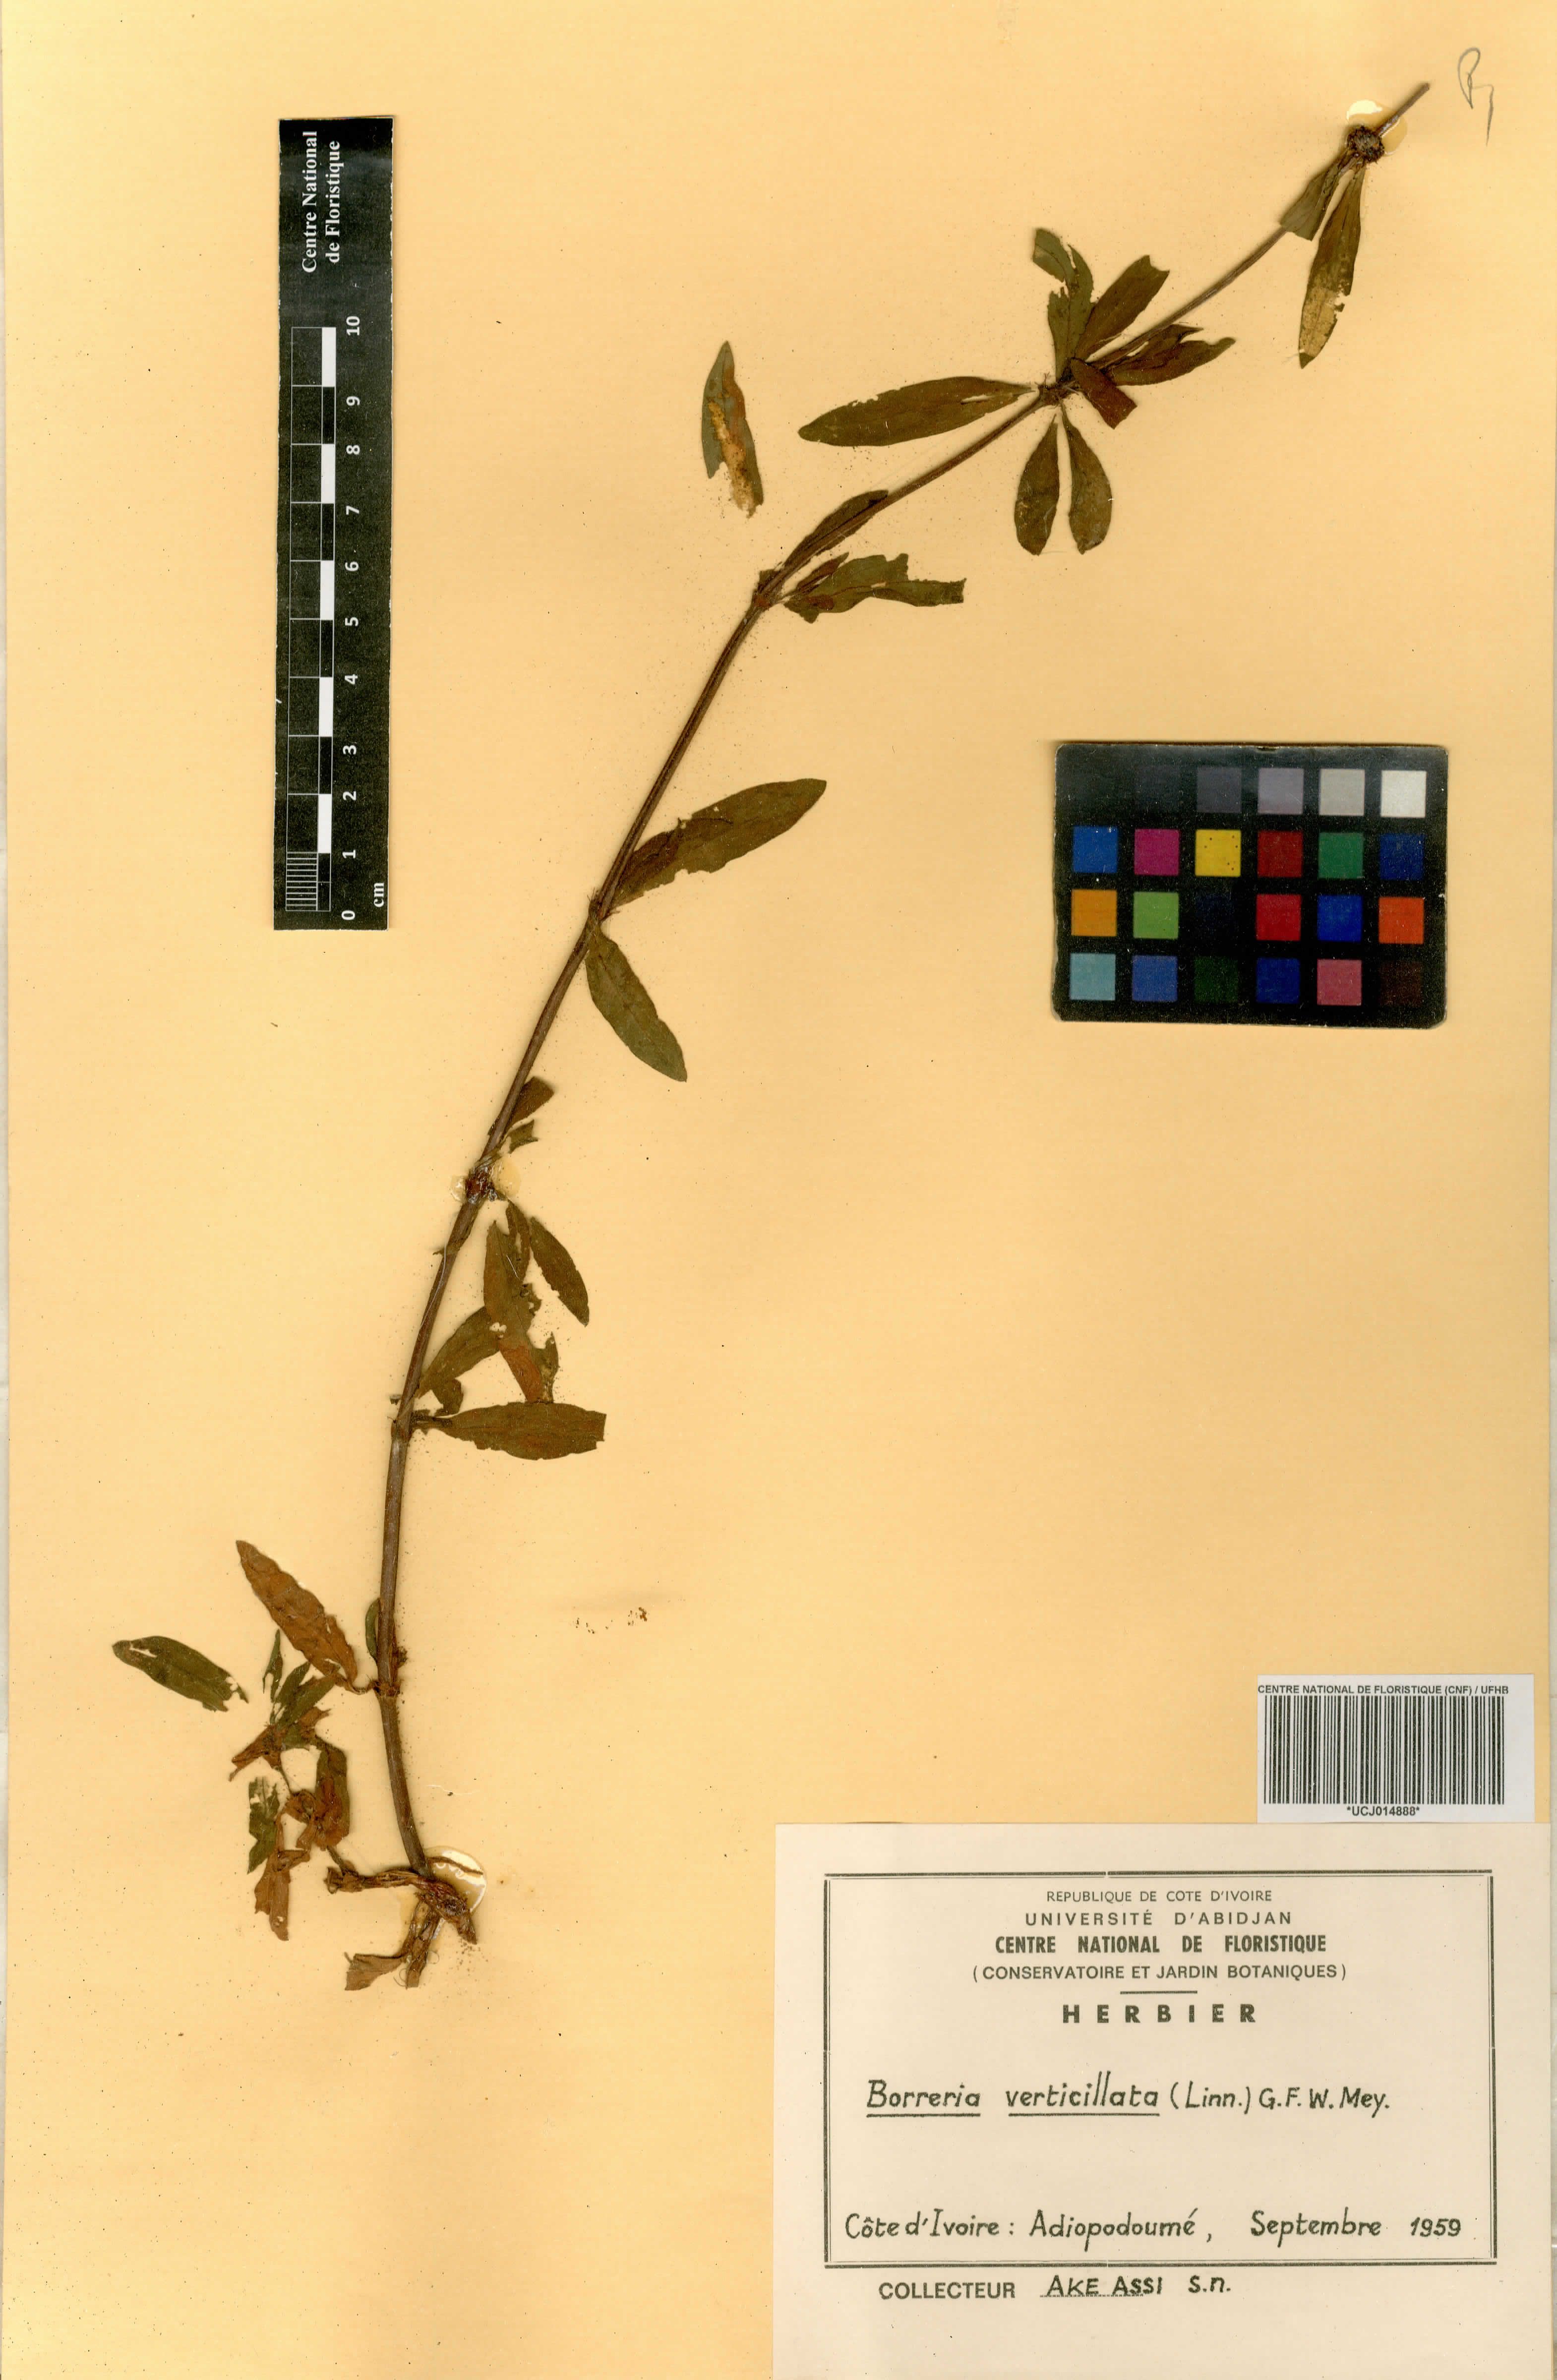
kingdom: Plantae
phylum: Tracheophyta
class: Magnoliopsida
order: Gentianales
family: Rubiaceae
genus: Spermacoce
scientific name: Spermacoce verticillata
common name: Shrubby false buttonweed
